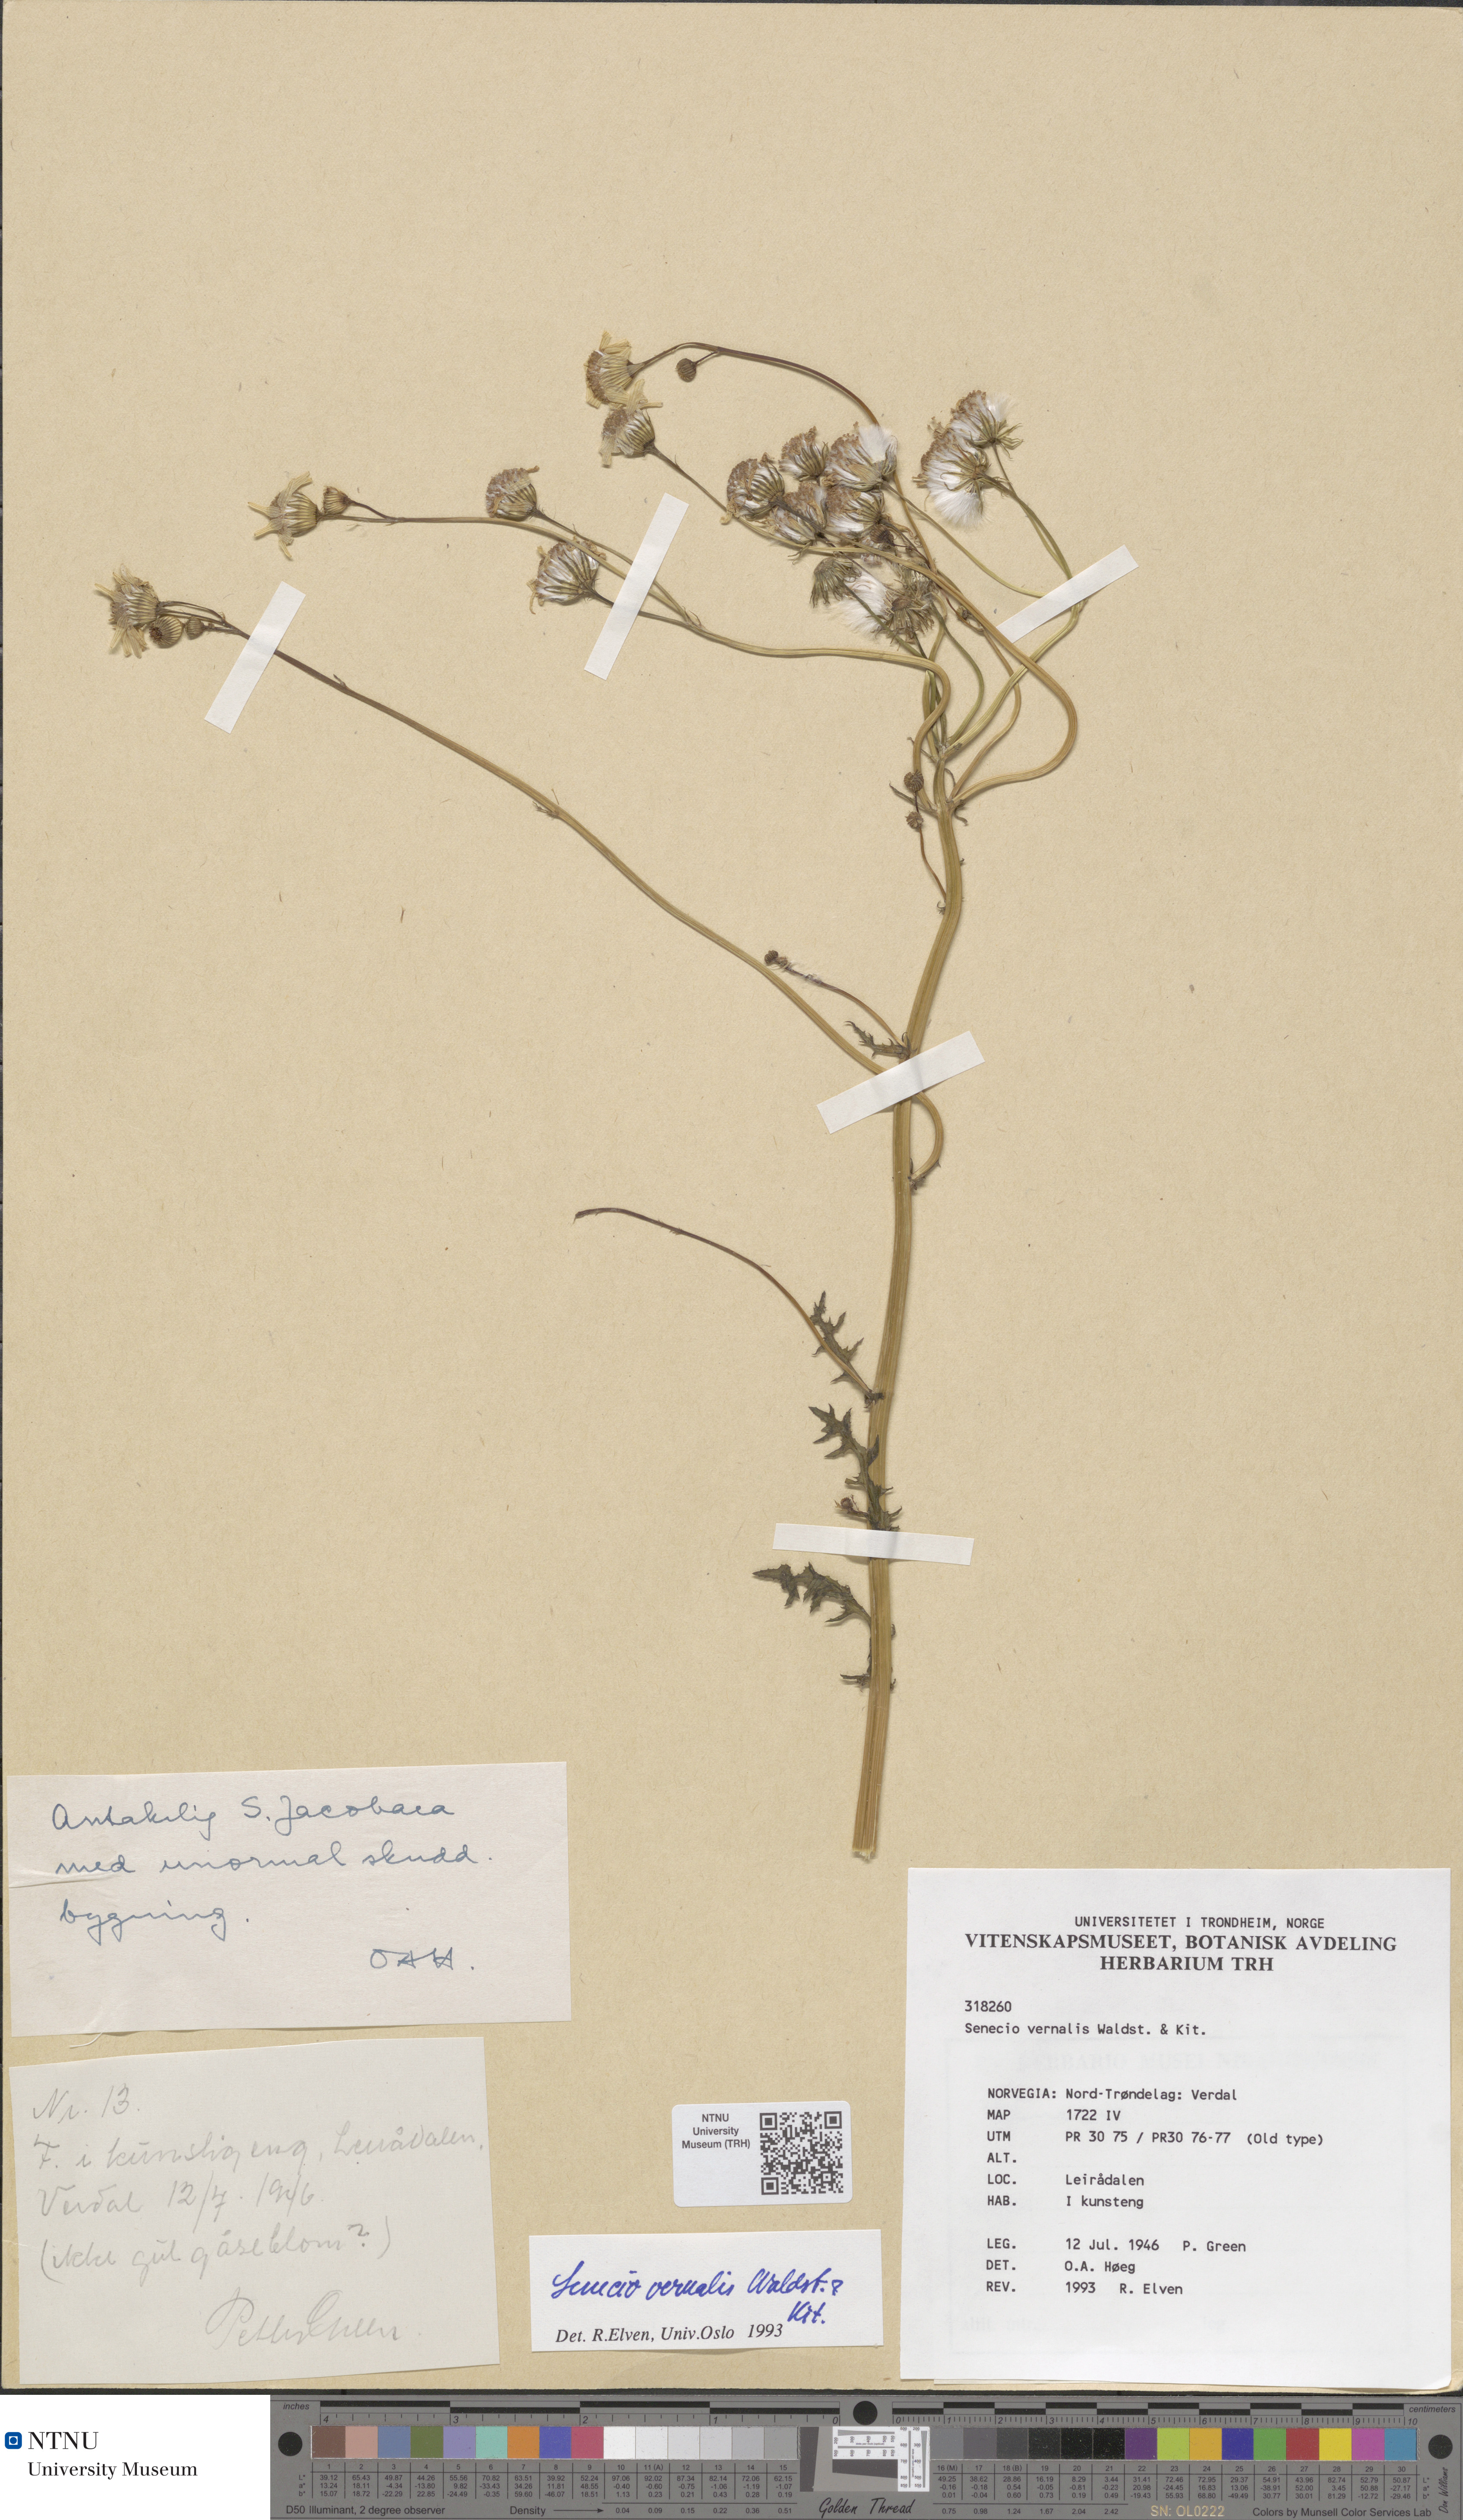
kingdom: Plantae
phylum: Tracheophyta
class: Magnoliopsida
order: Asterales
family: Asteraceae
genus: Senecio
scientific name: Senecio vernalis
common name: Eastern groundsel
